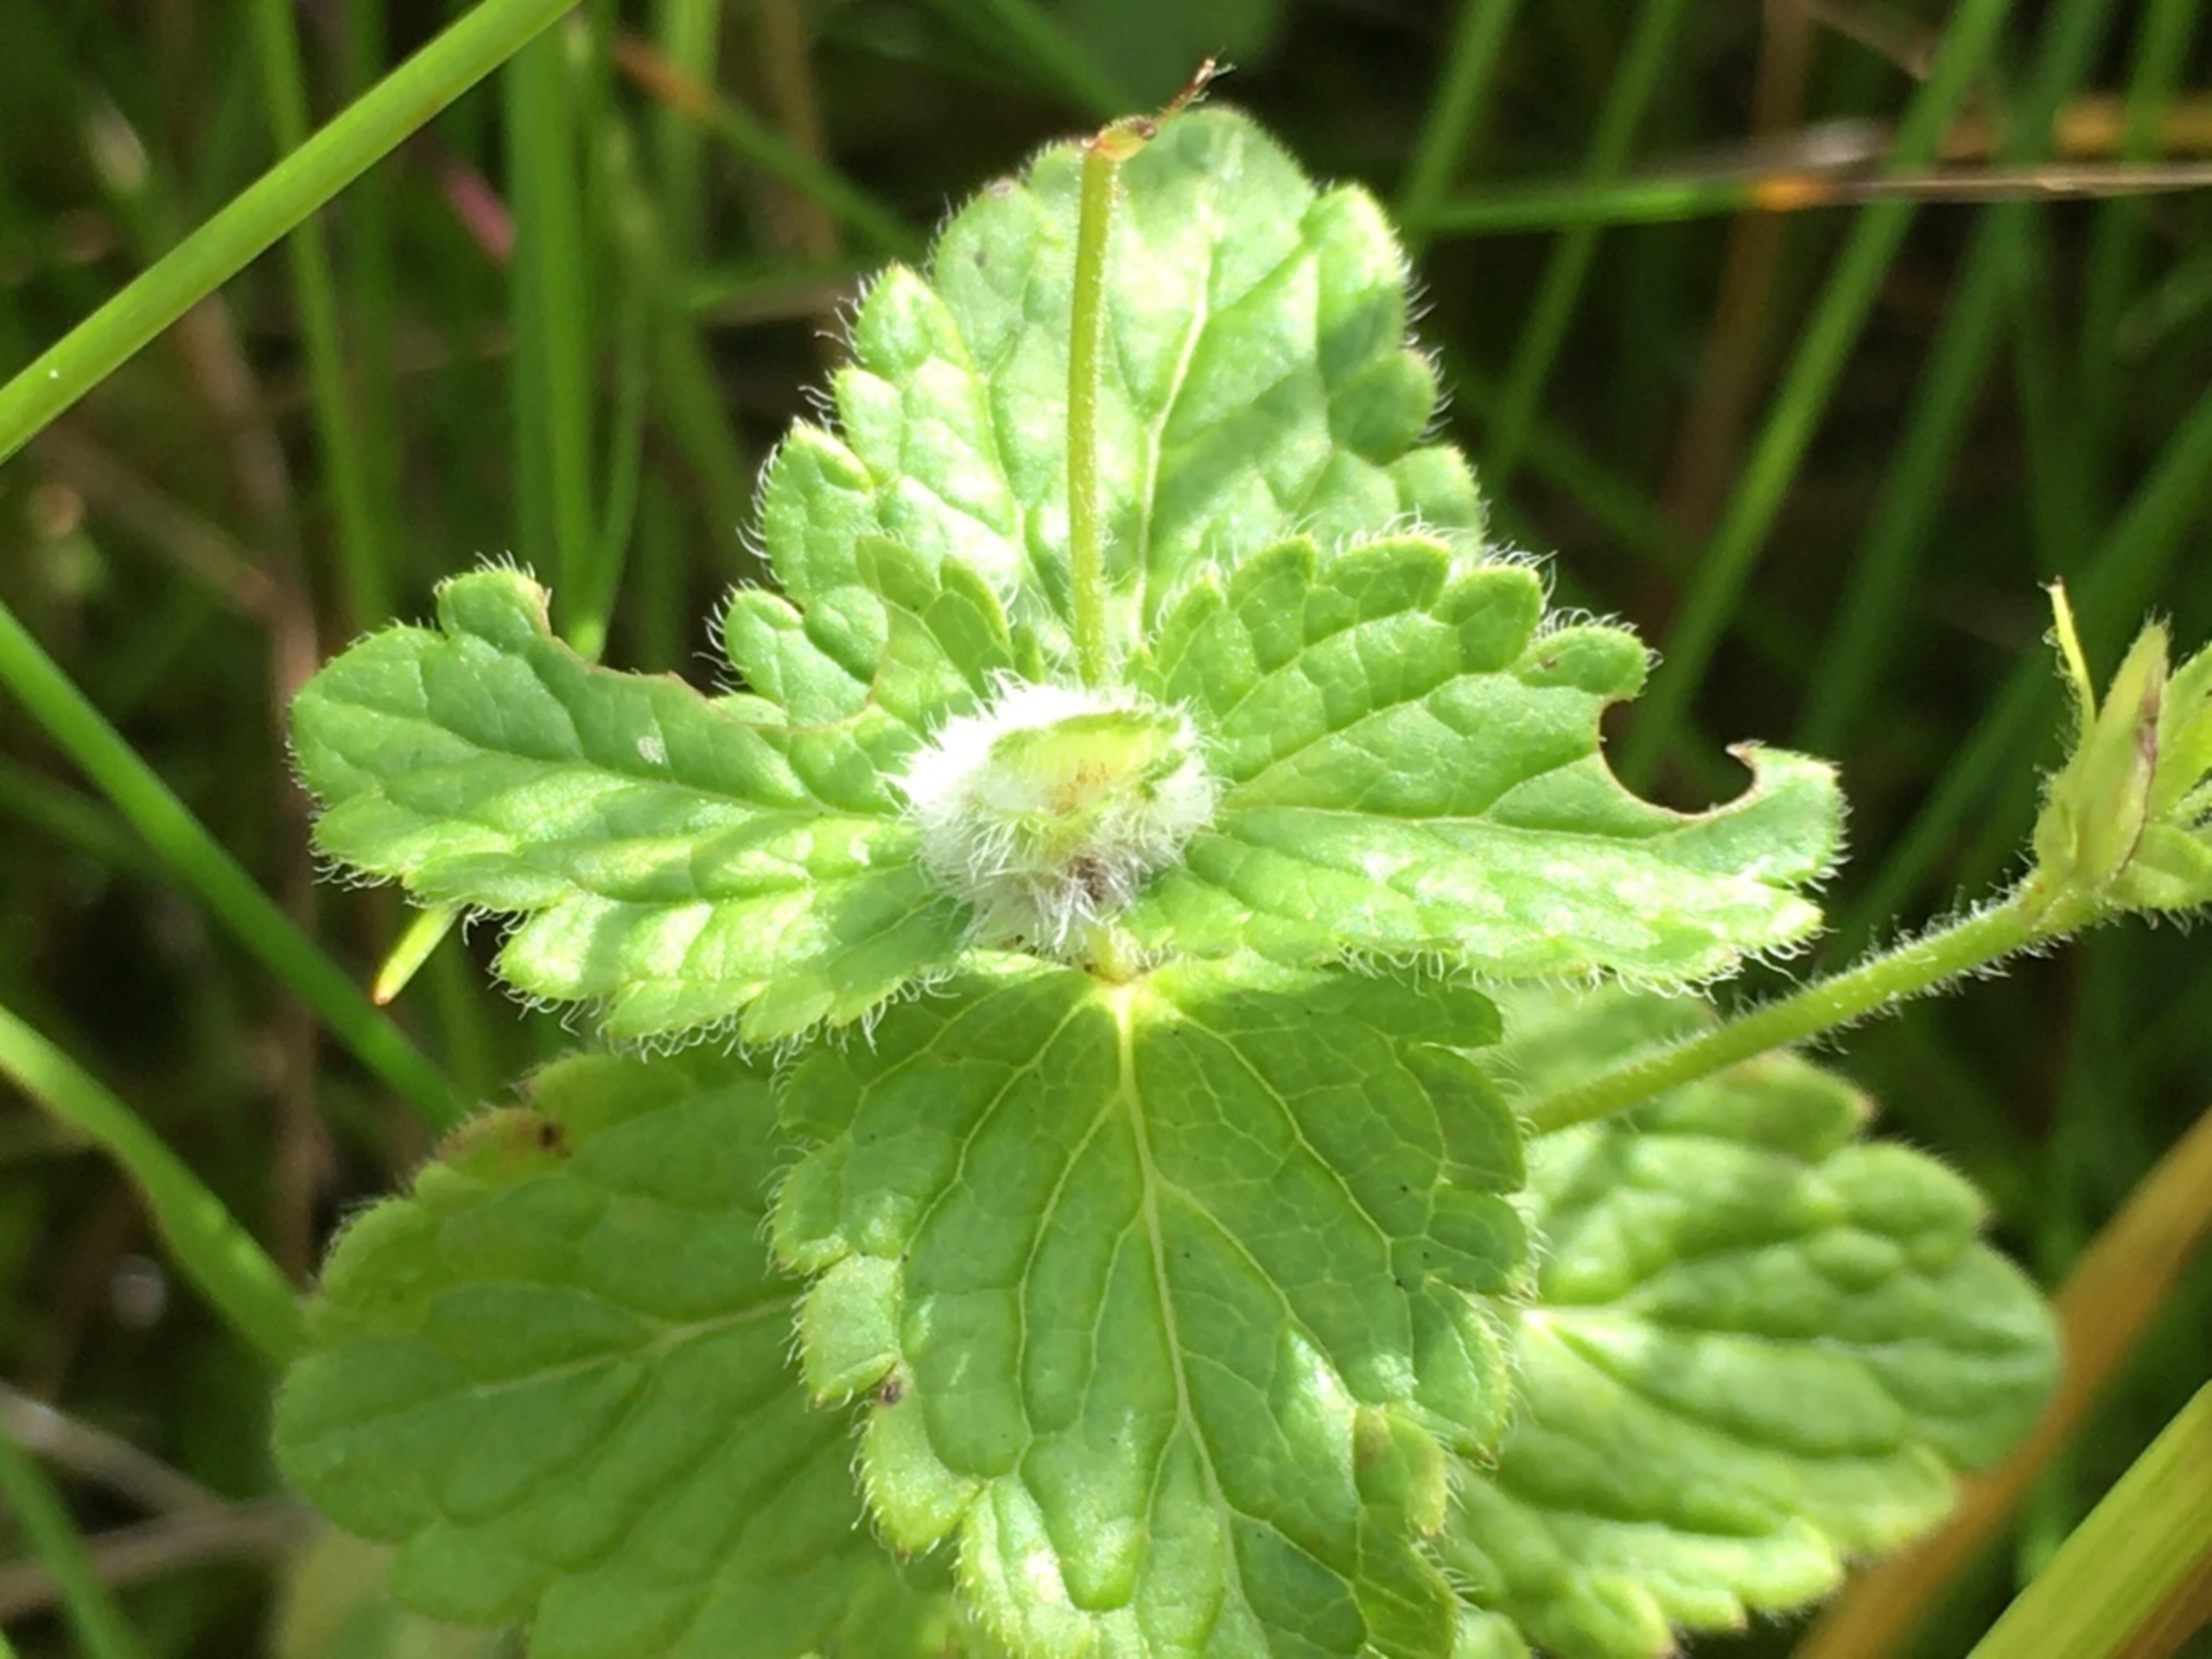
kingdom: Animalia
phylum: Arthropoda
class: Insecta
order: Diptera
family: Cecidomyiidae
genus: Jaapiella
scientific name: Jaapiella veronicae
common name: Ærenprisgalmyg
